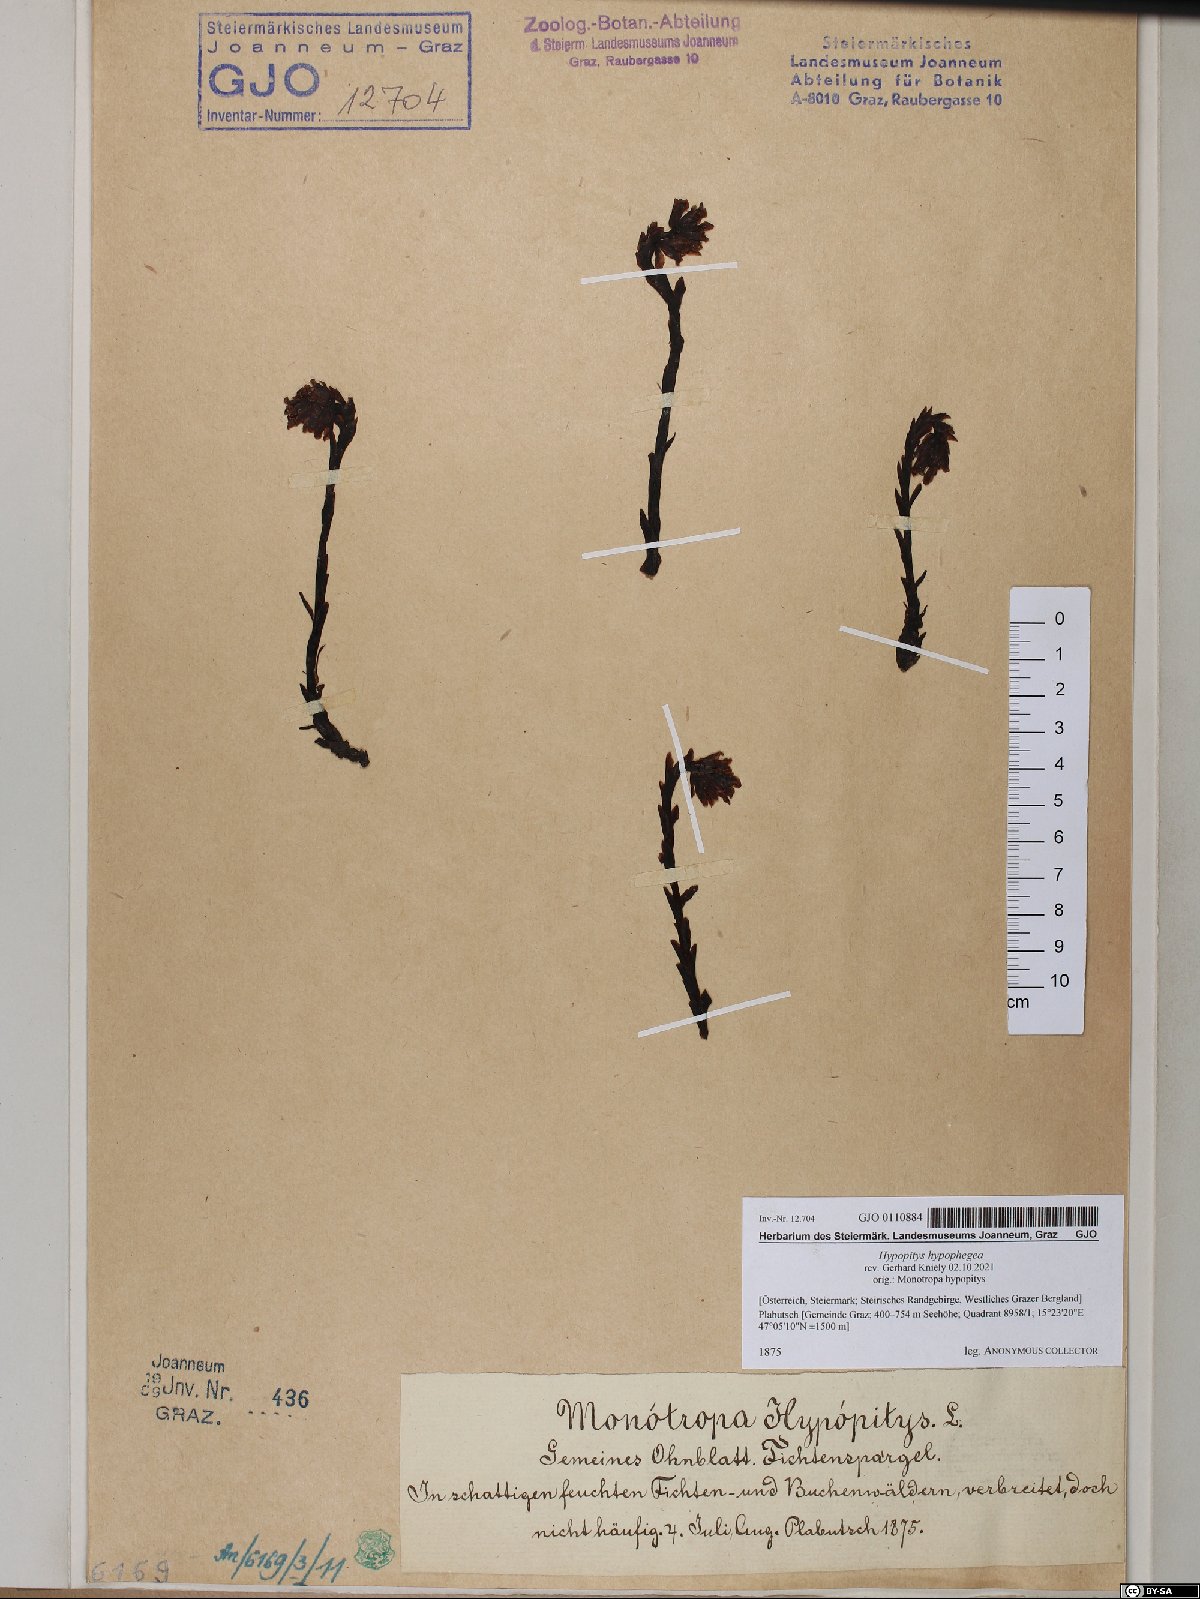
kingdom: Plantae
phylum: Tracheophyta
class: Magnoliopsida
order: Ericales
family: Ericaceae
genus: Hypopitys
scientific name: Hypopitys hypophegea
